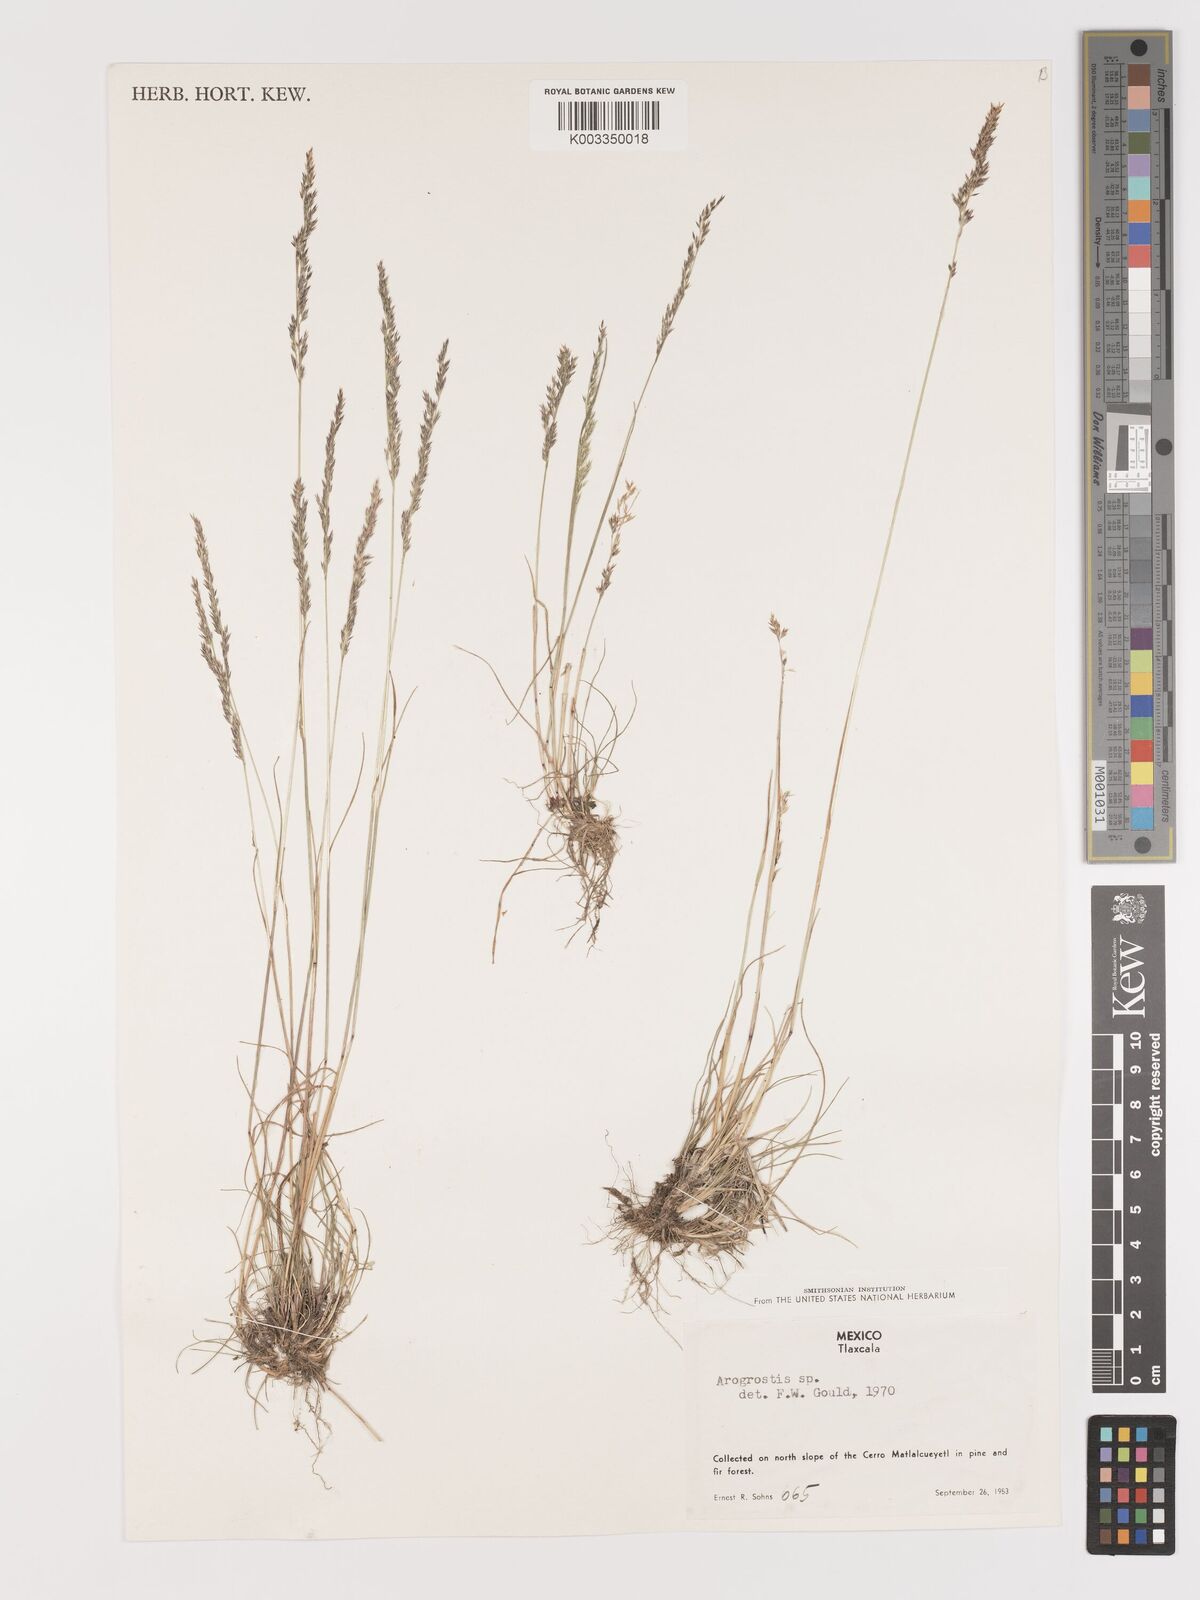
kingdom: Plantae
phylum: Tracheophyta
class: Liliopsida
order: Poales
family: Poaceae
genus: Agrostis
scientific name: Agrostis
